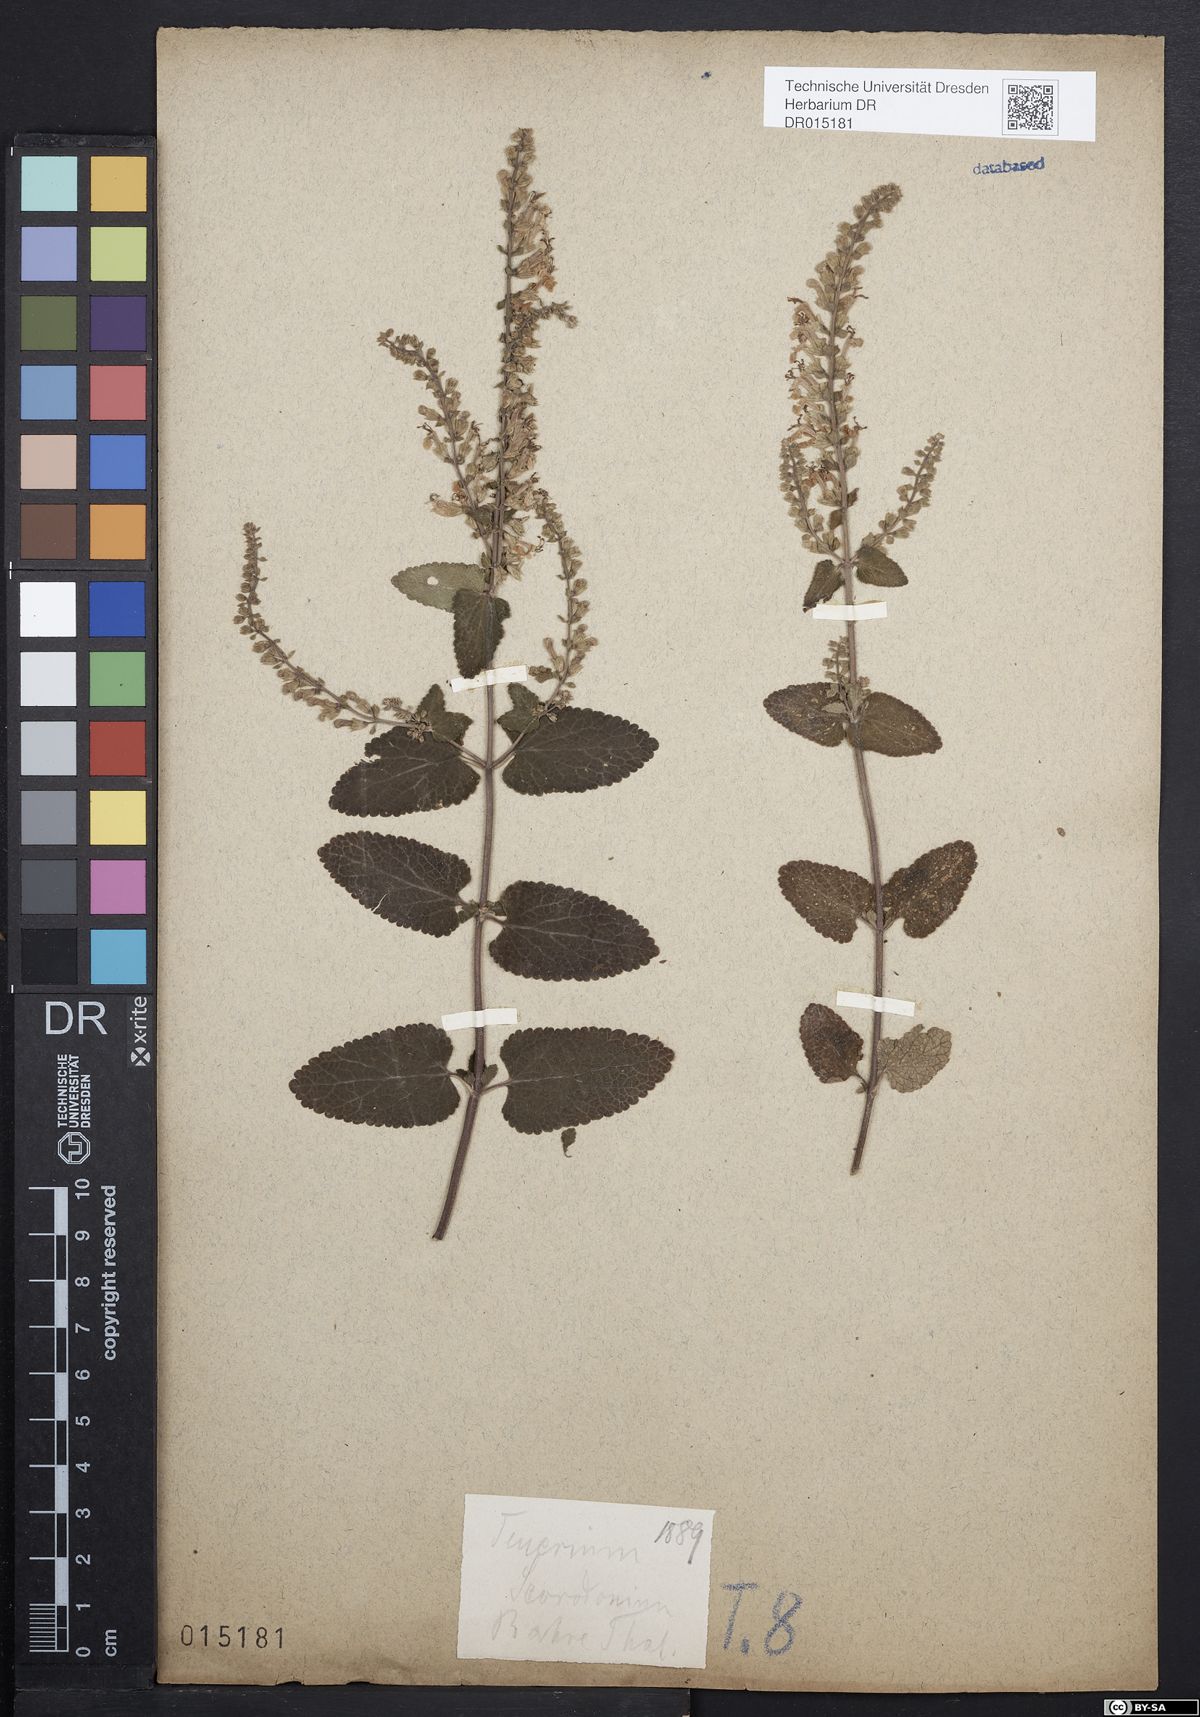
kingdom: Plantae
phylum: Tracheophyta
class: Magnoliopsida
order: Lamiales
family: Lamiaceae
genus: Teucrium
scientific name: Teucrium scorodonia
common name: Woodland germander
